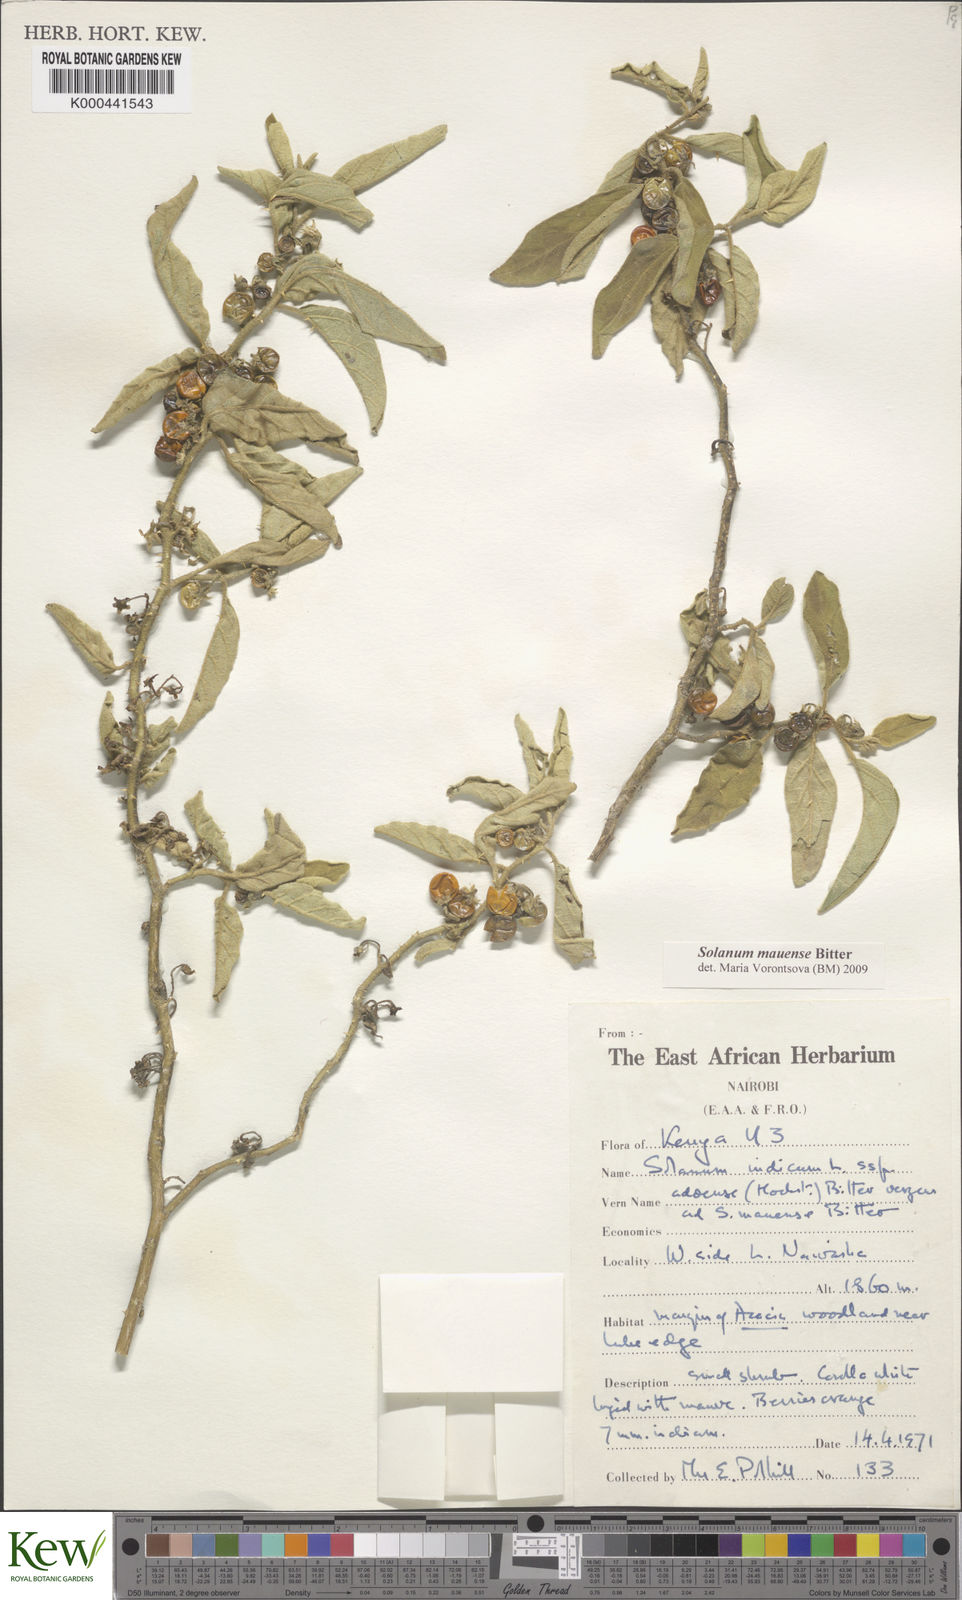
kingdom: Plantae
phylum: Tracheophyta
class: Magnoliopsida
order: Solanales
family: Solanaceae
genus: Solanum
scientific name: Solanum mauense
